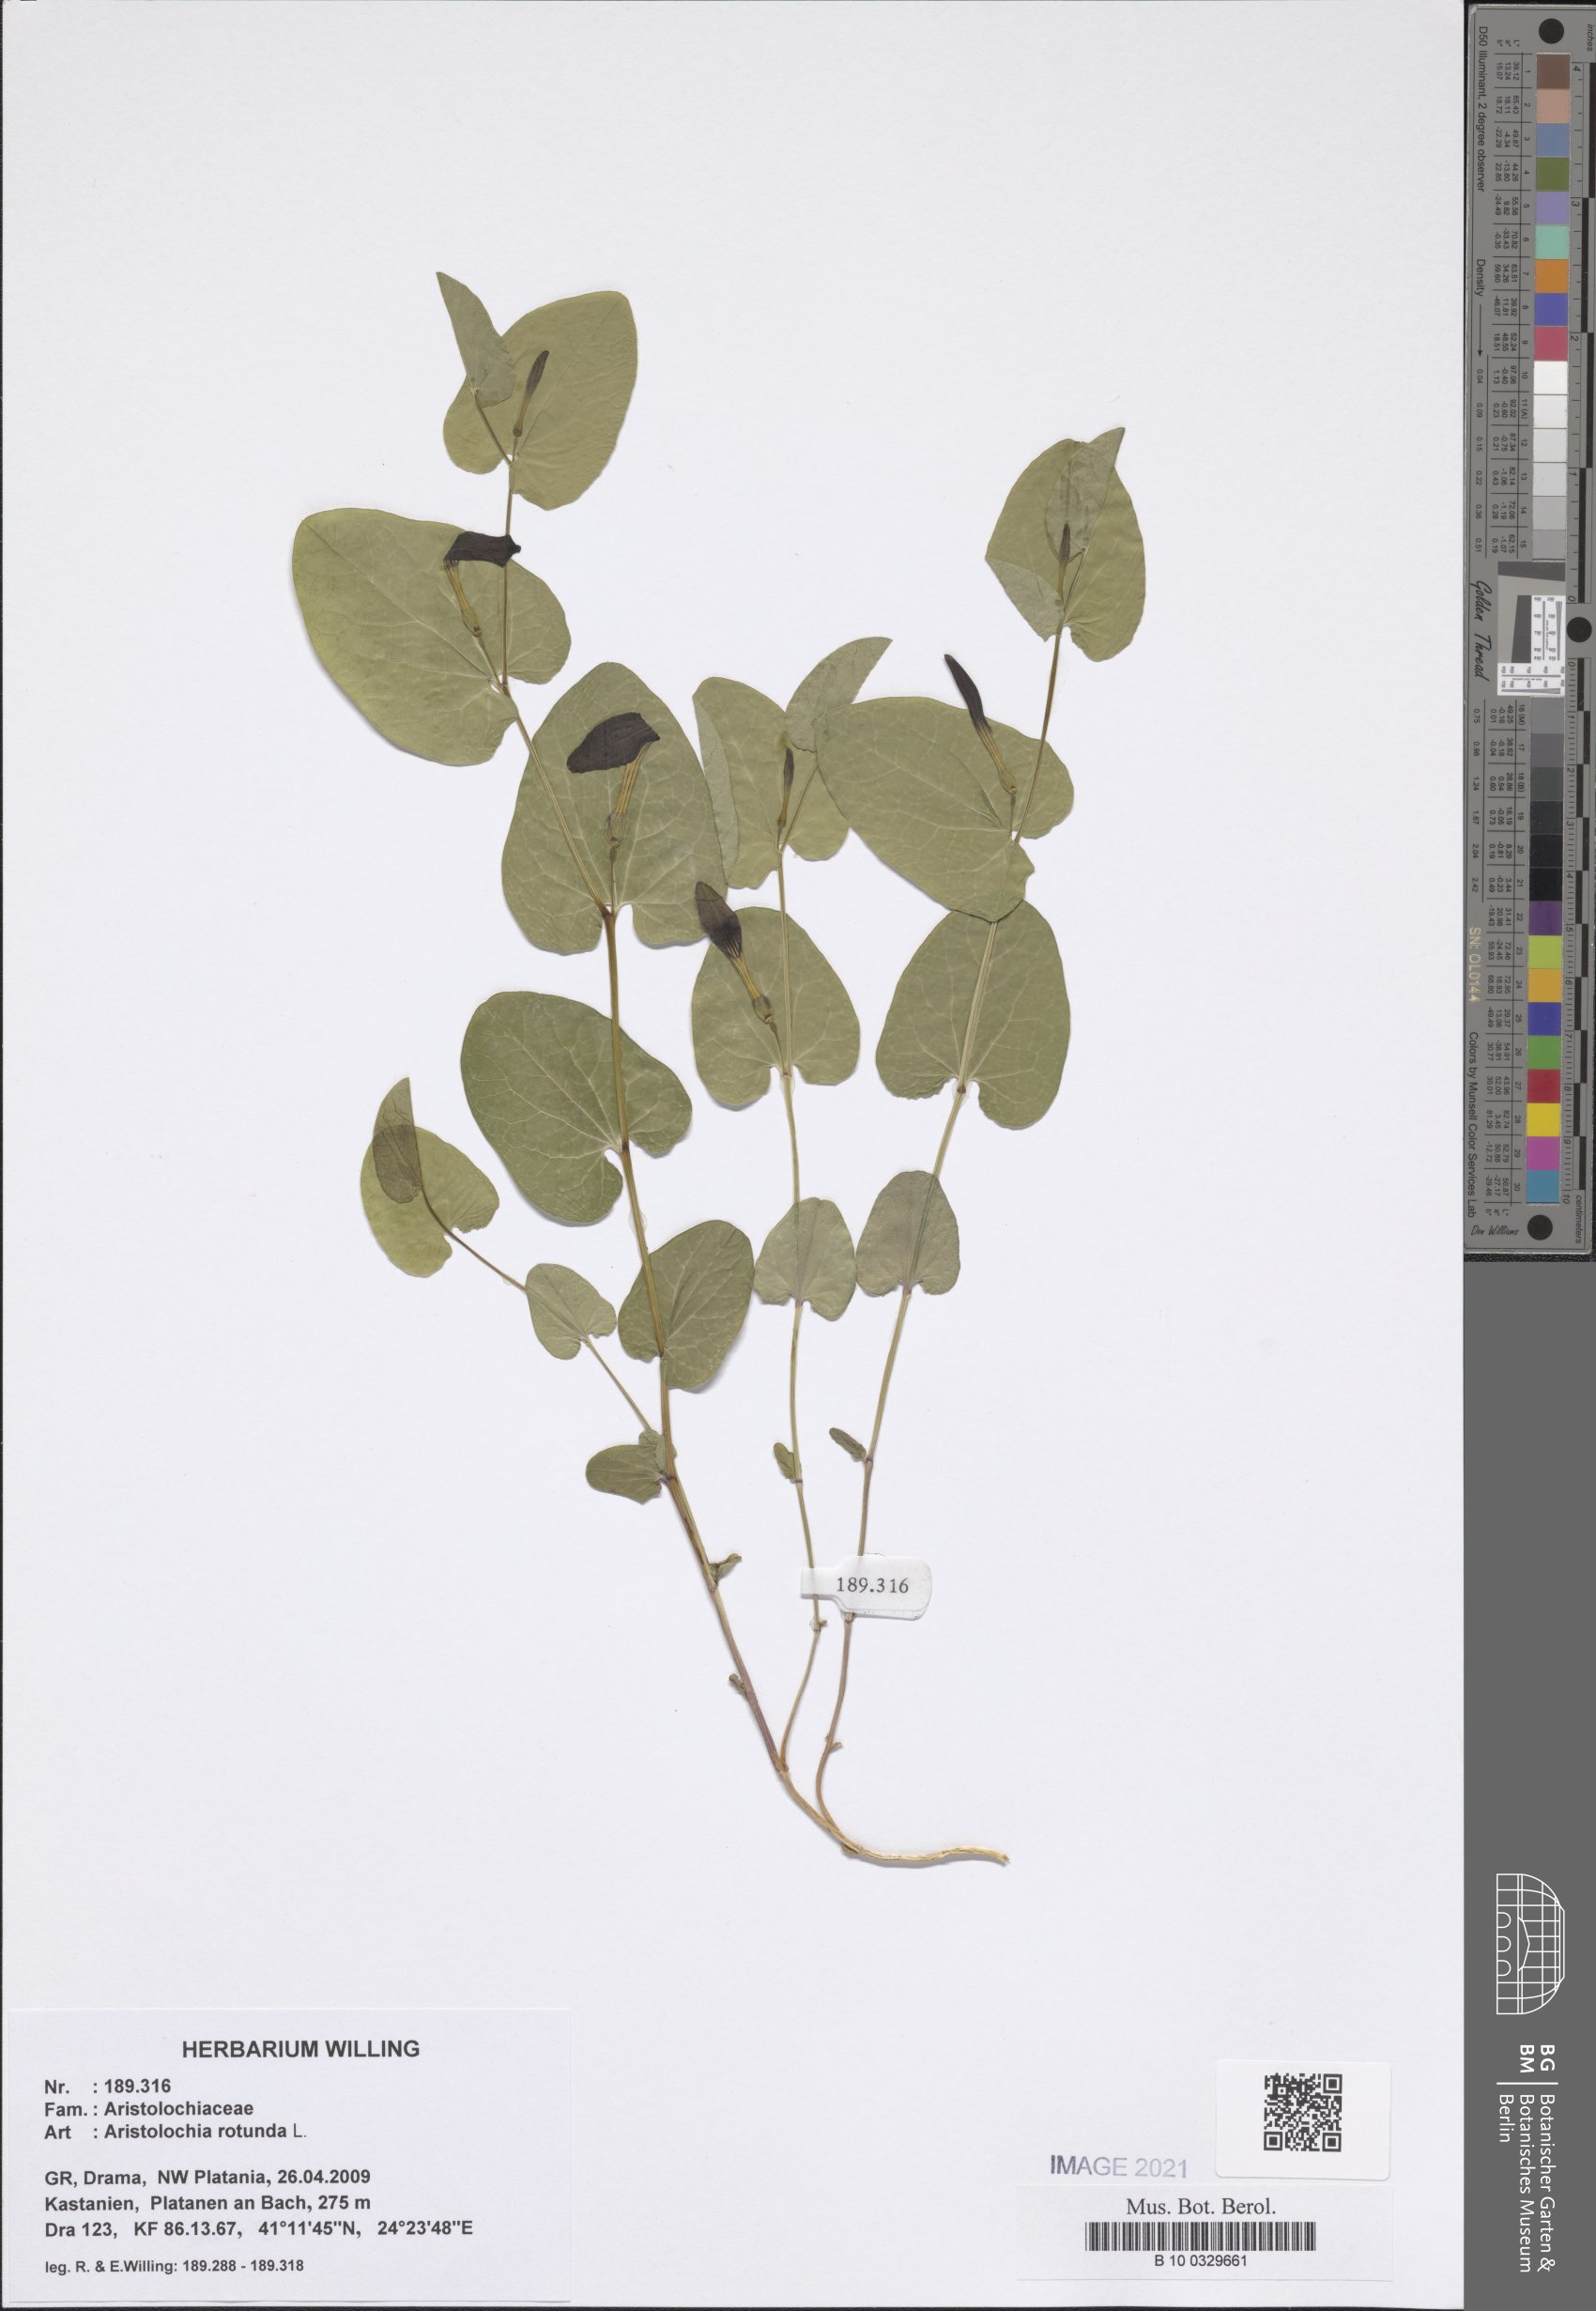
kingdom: Plantae
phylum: Tracheophyta
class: Magnoliopsida
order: Piperales
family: Aristolochiaceae
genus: Aristolochia
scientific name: Aristolochia rotunda
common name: Smearwort
